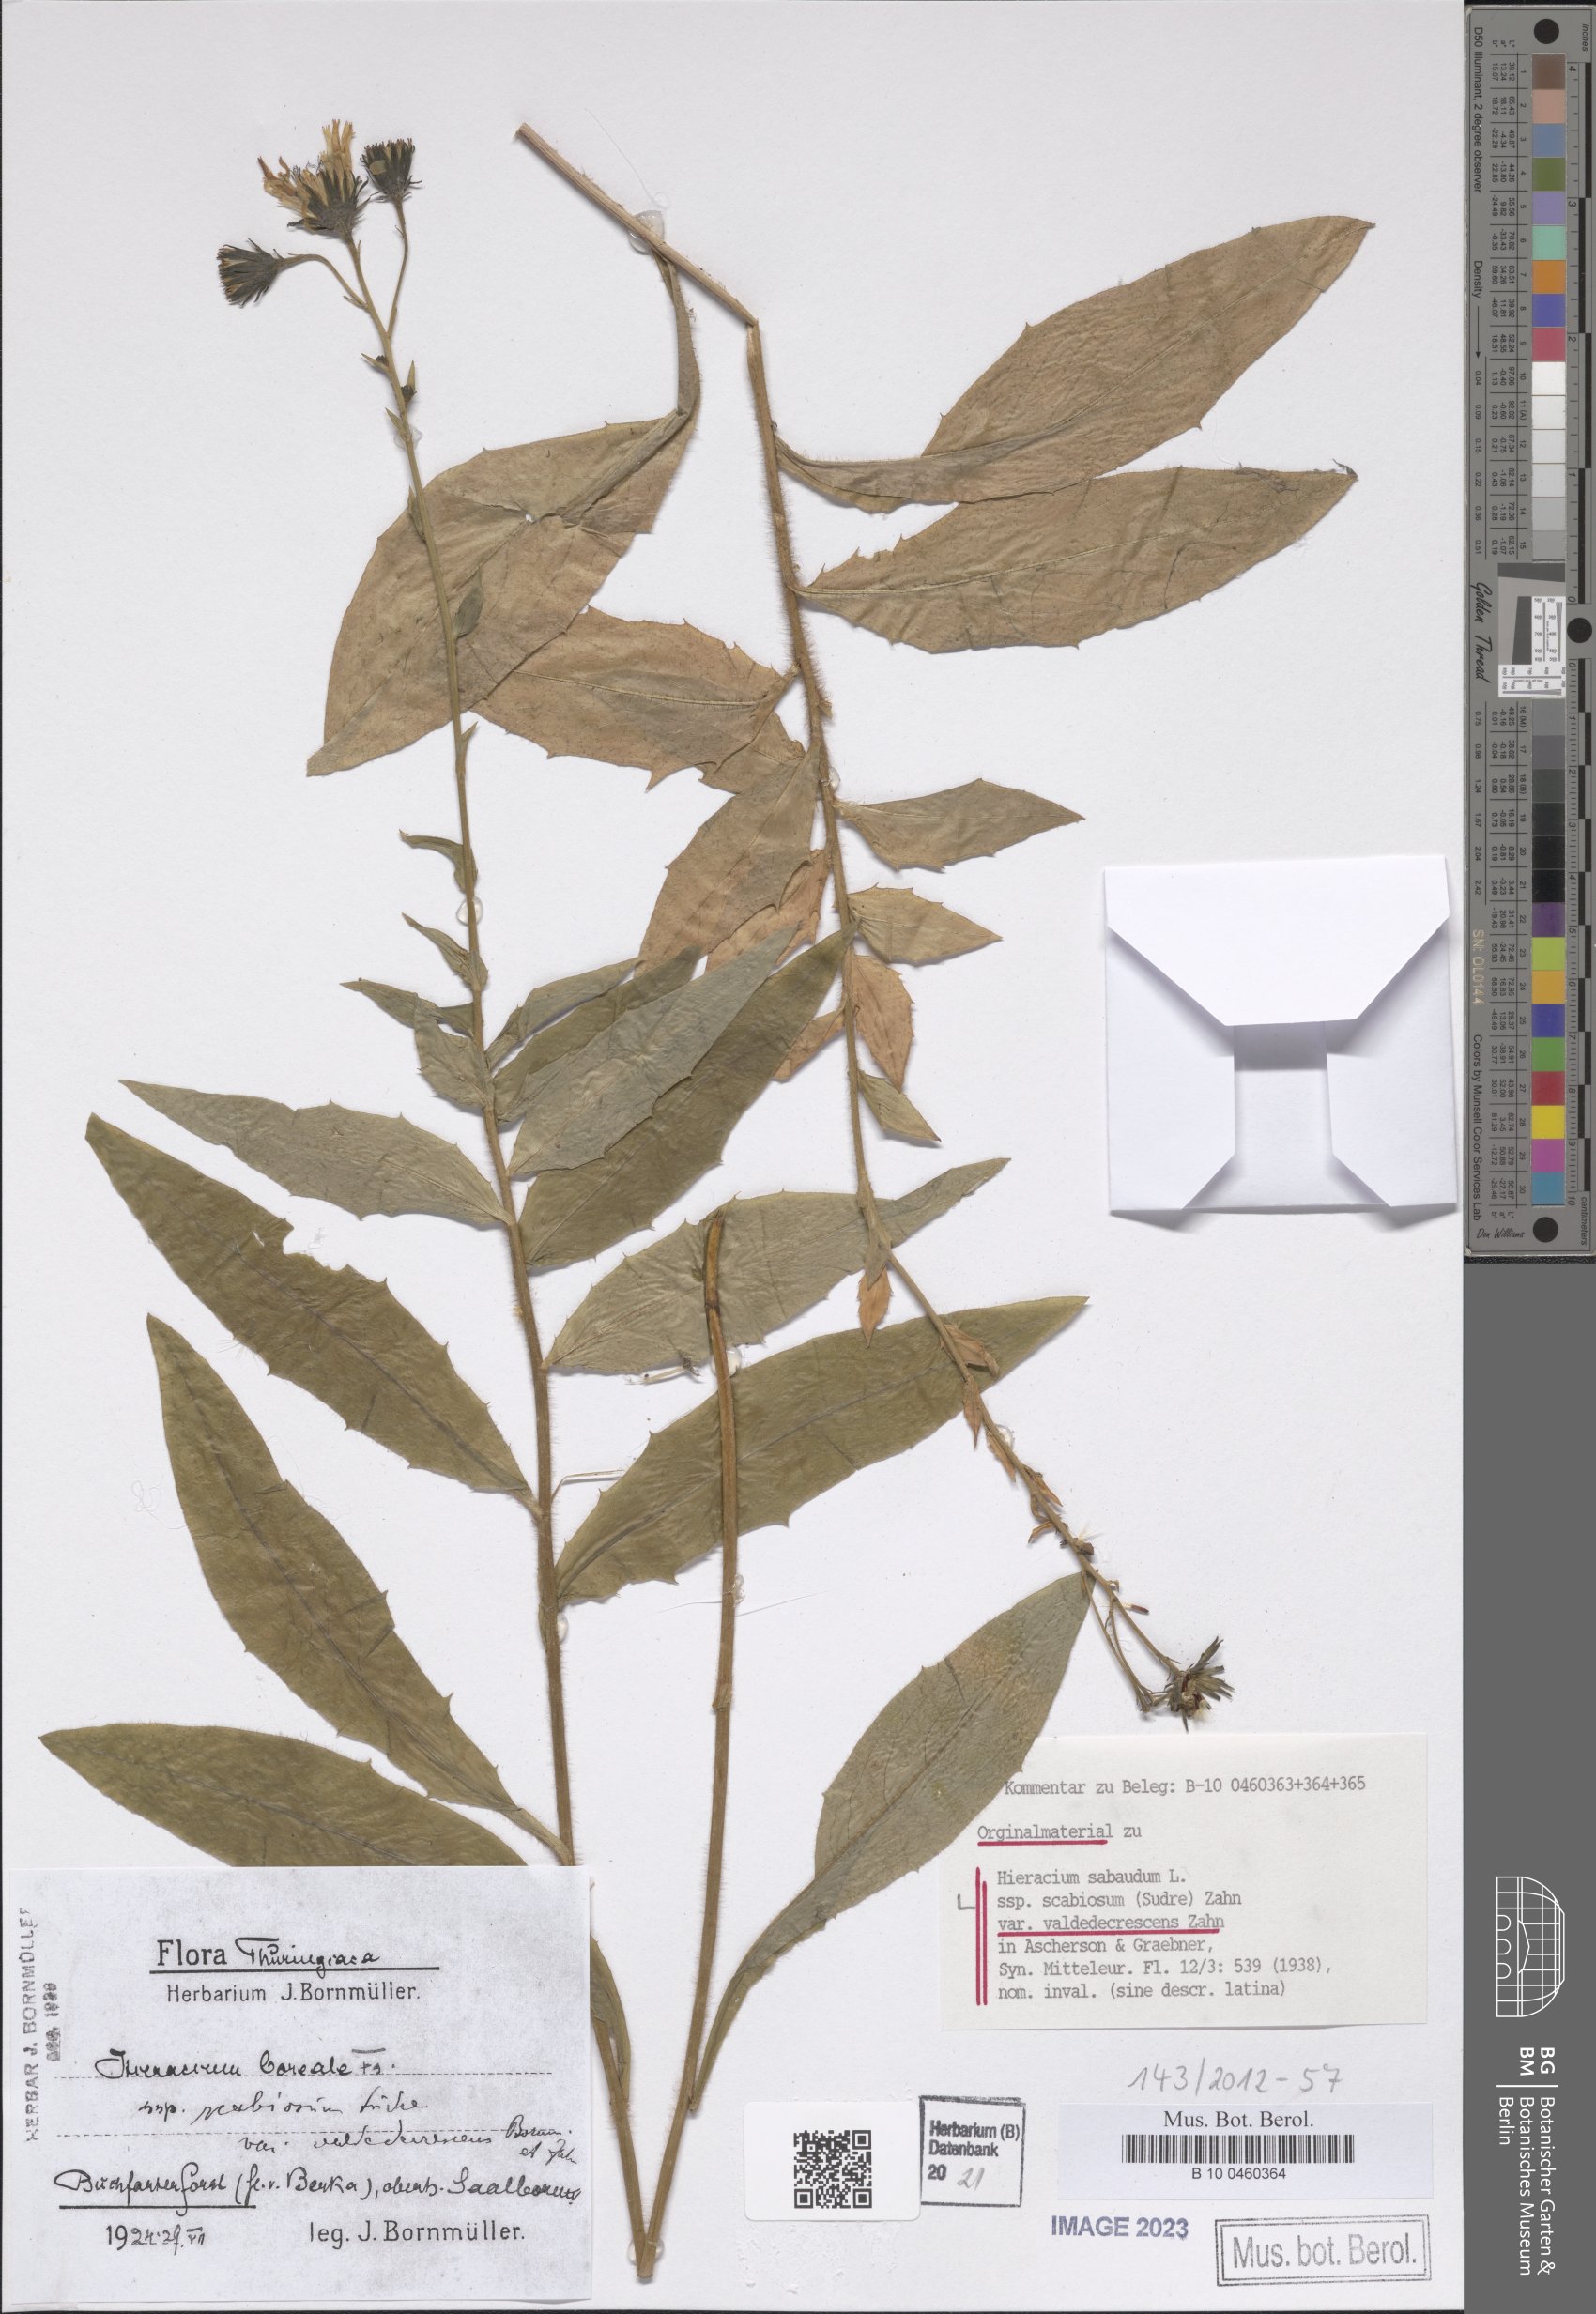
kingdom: Plantae
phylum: Tracheophyta
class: Magnoliopsida
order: Asterales
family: Asteraceae
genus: Hieracium
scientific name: Hieracium sabaudum
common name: New england hawkweed
